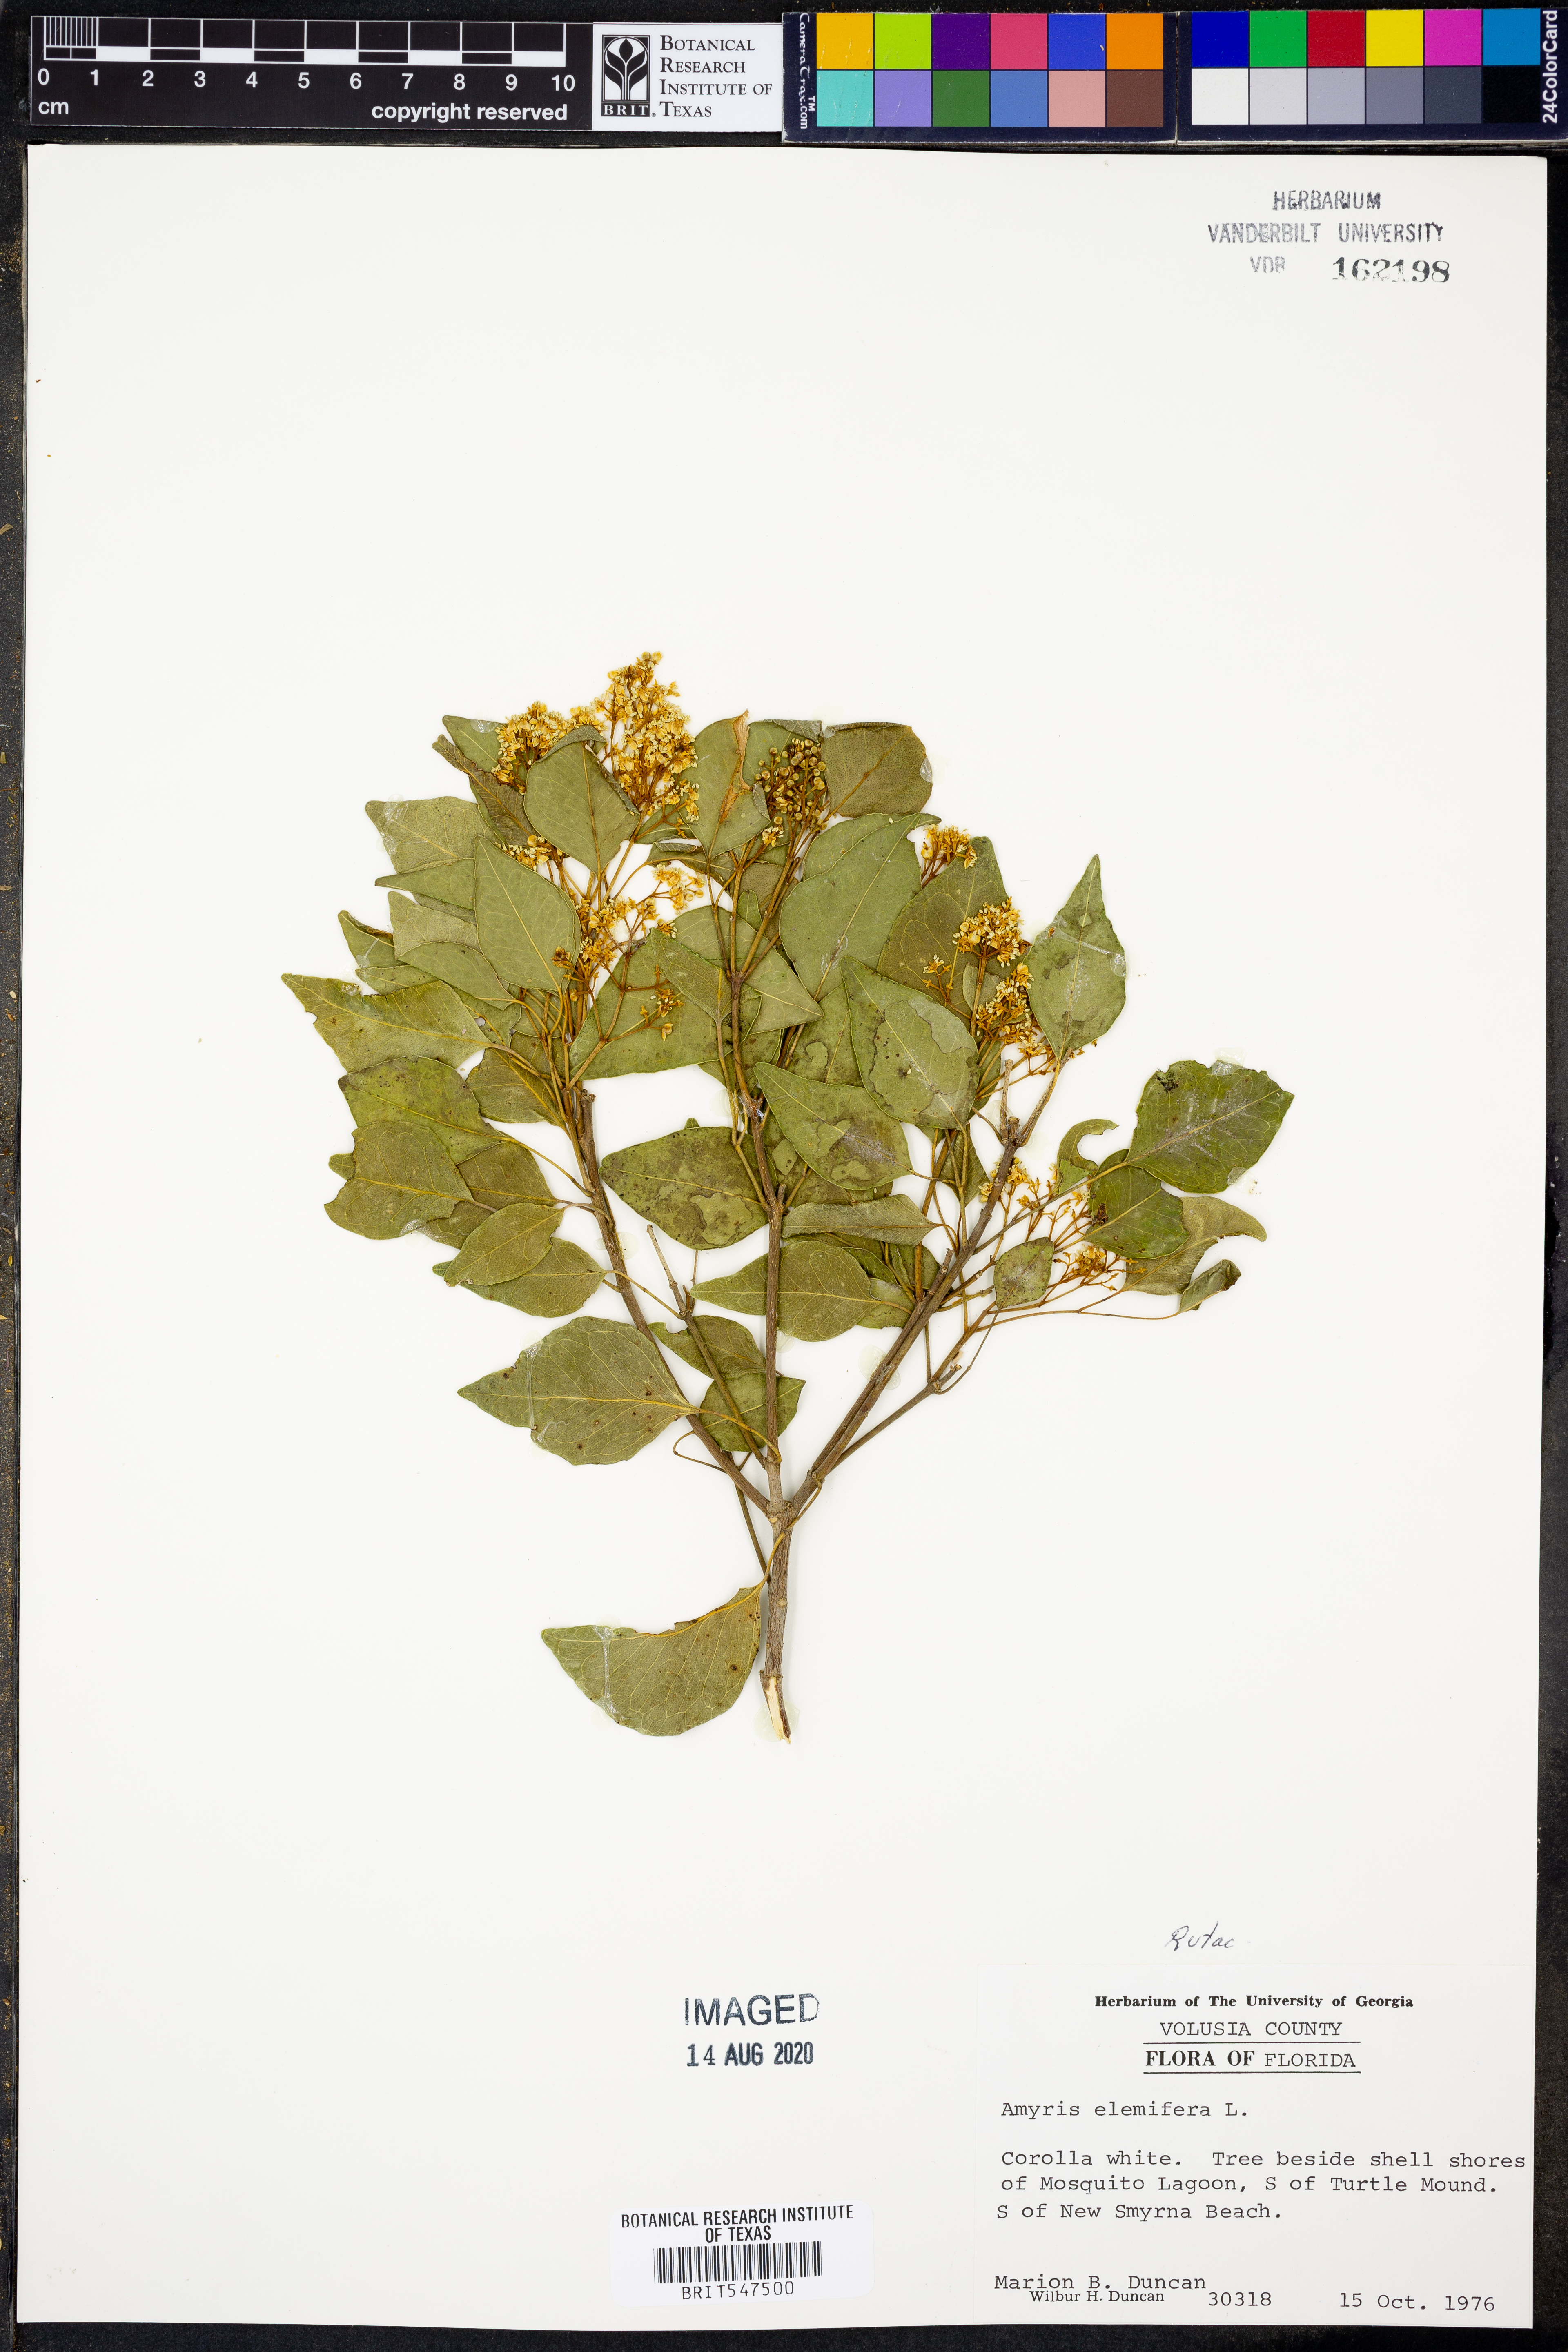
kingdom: Plantae
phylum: Tracheophyta
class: Magnoliopsida
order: Sapindales
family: Rutaceae
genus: Amyris
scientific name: Amyris elemifera
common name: Sea amyris
